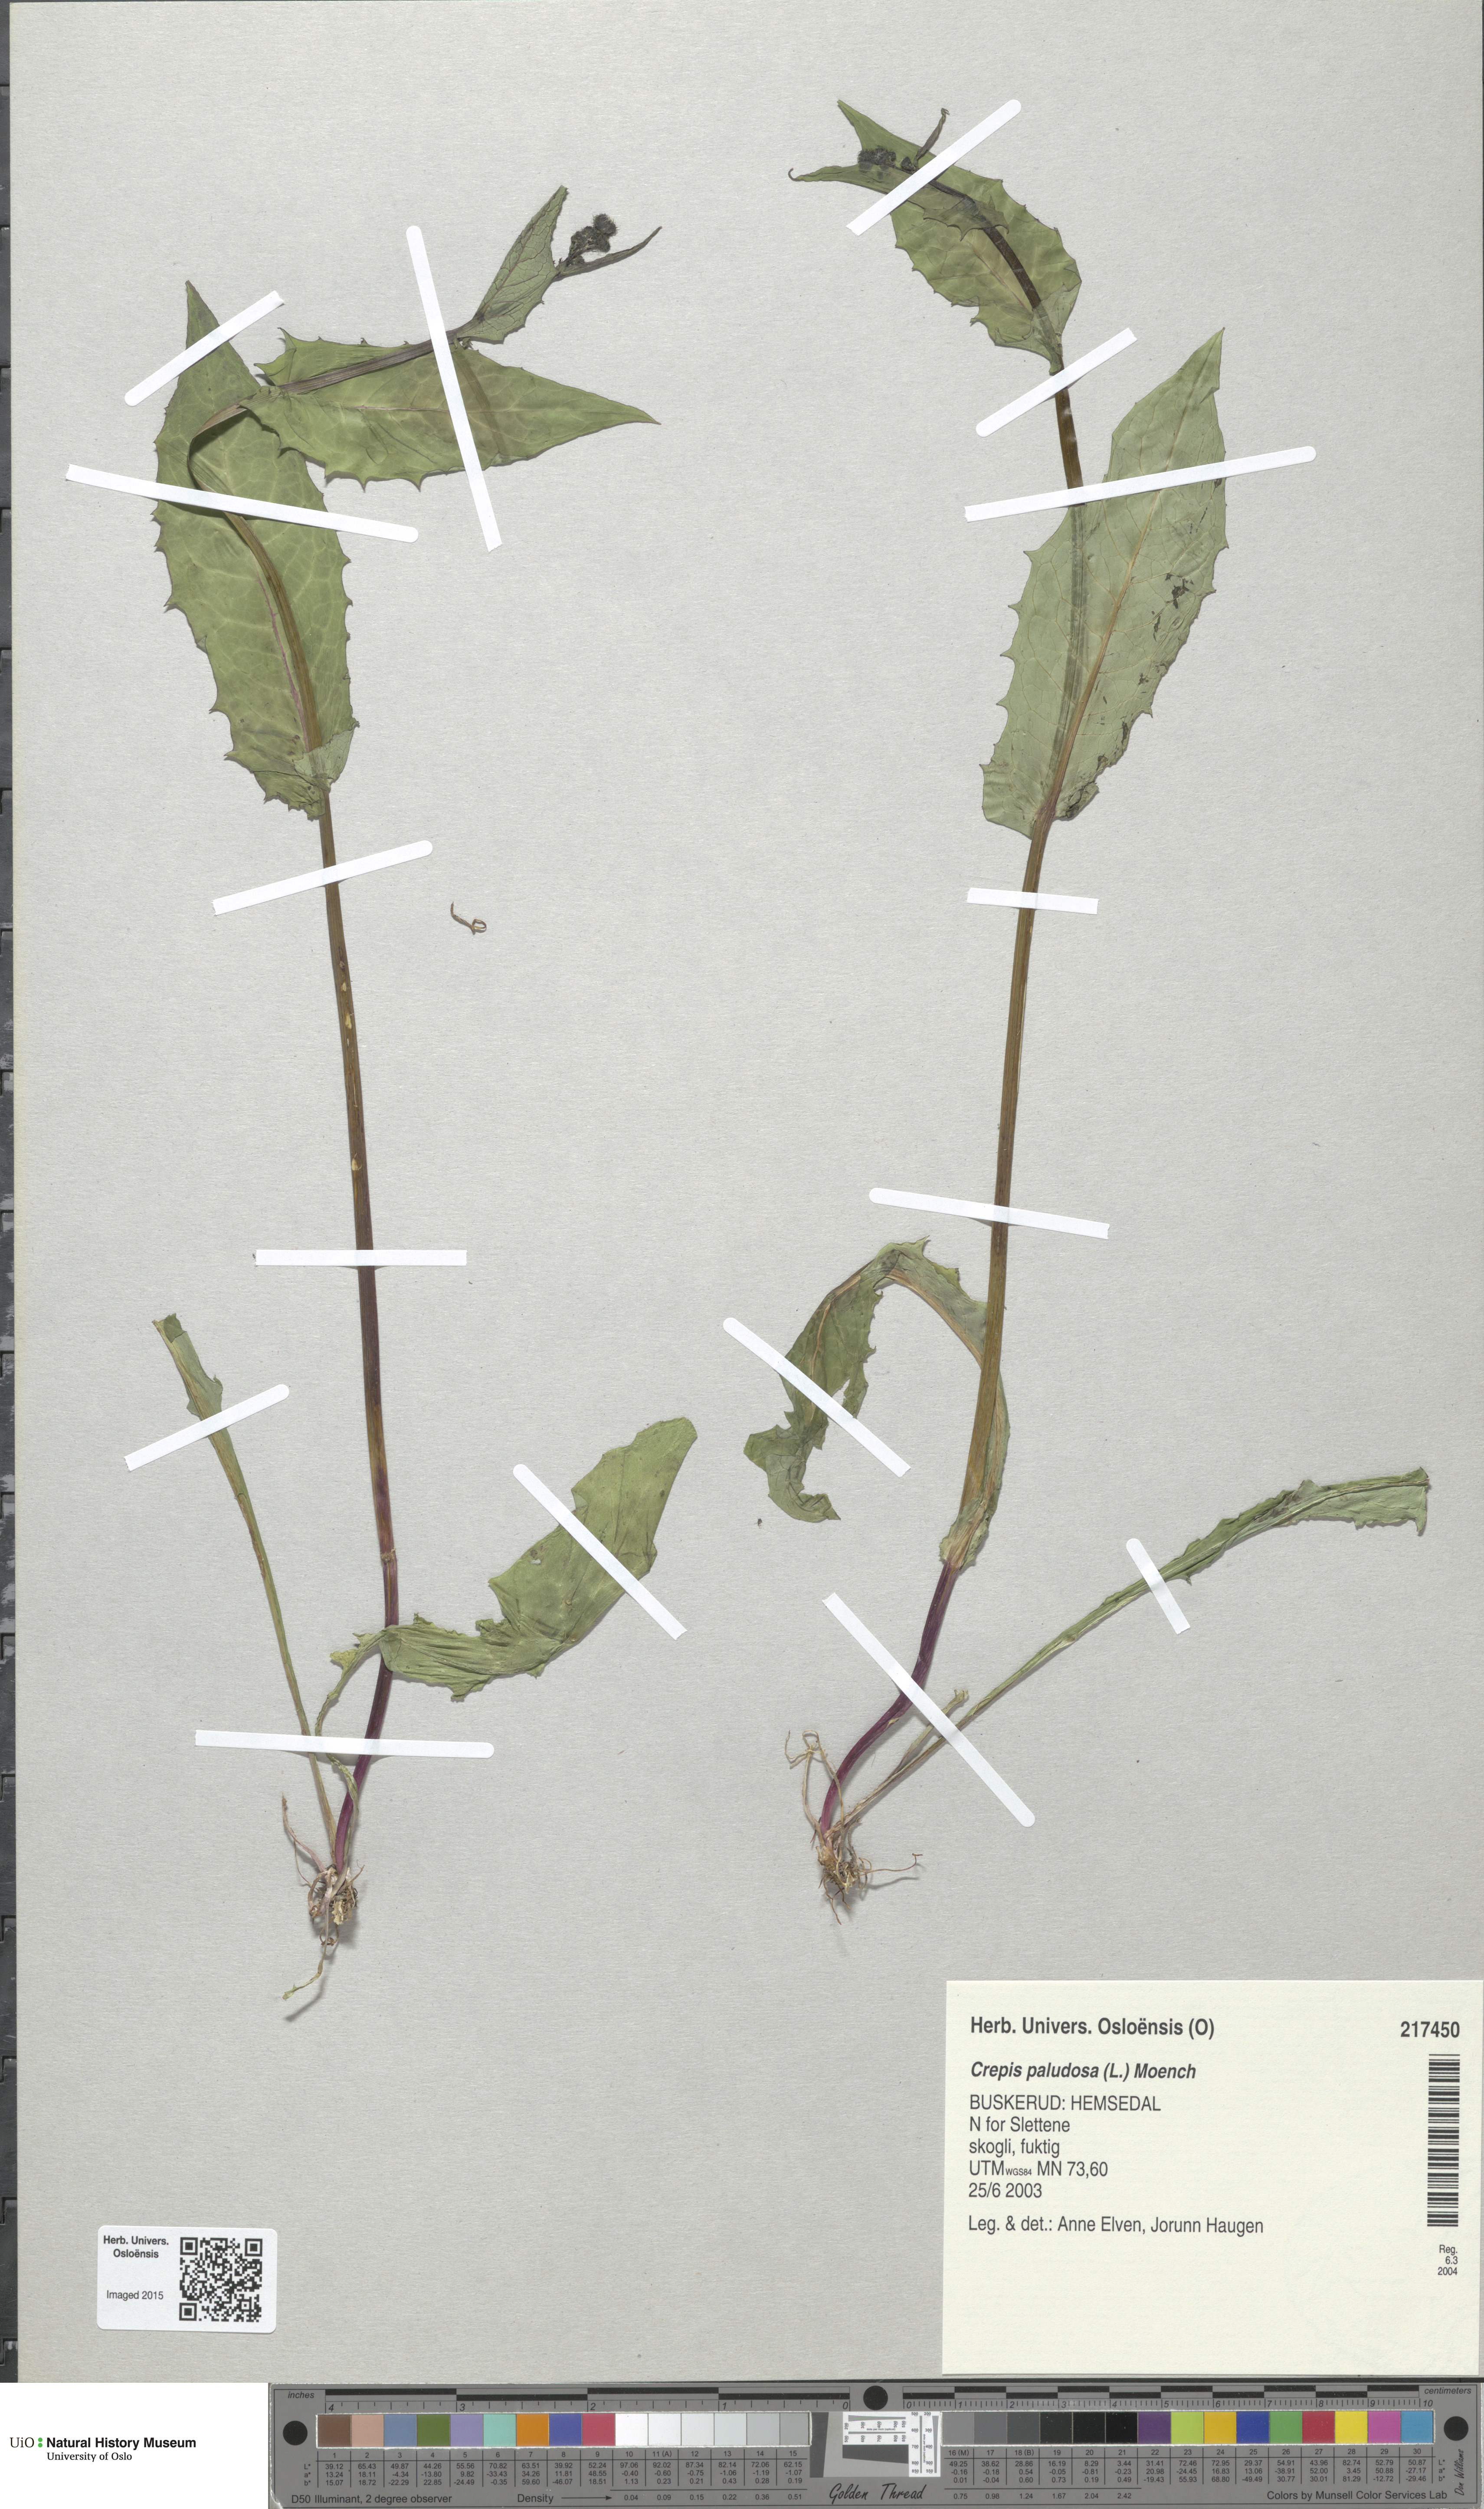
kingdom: Plantae
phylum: Tracheophyta
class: Magnoliopsida
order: Asterales
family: Asteraceae
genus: Crepis
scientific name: Crepis paludosa
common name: Marsh hawk's-beard
